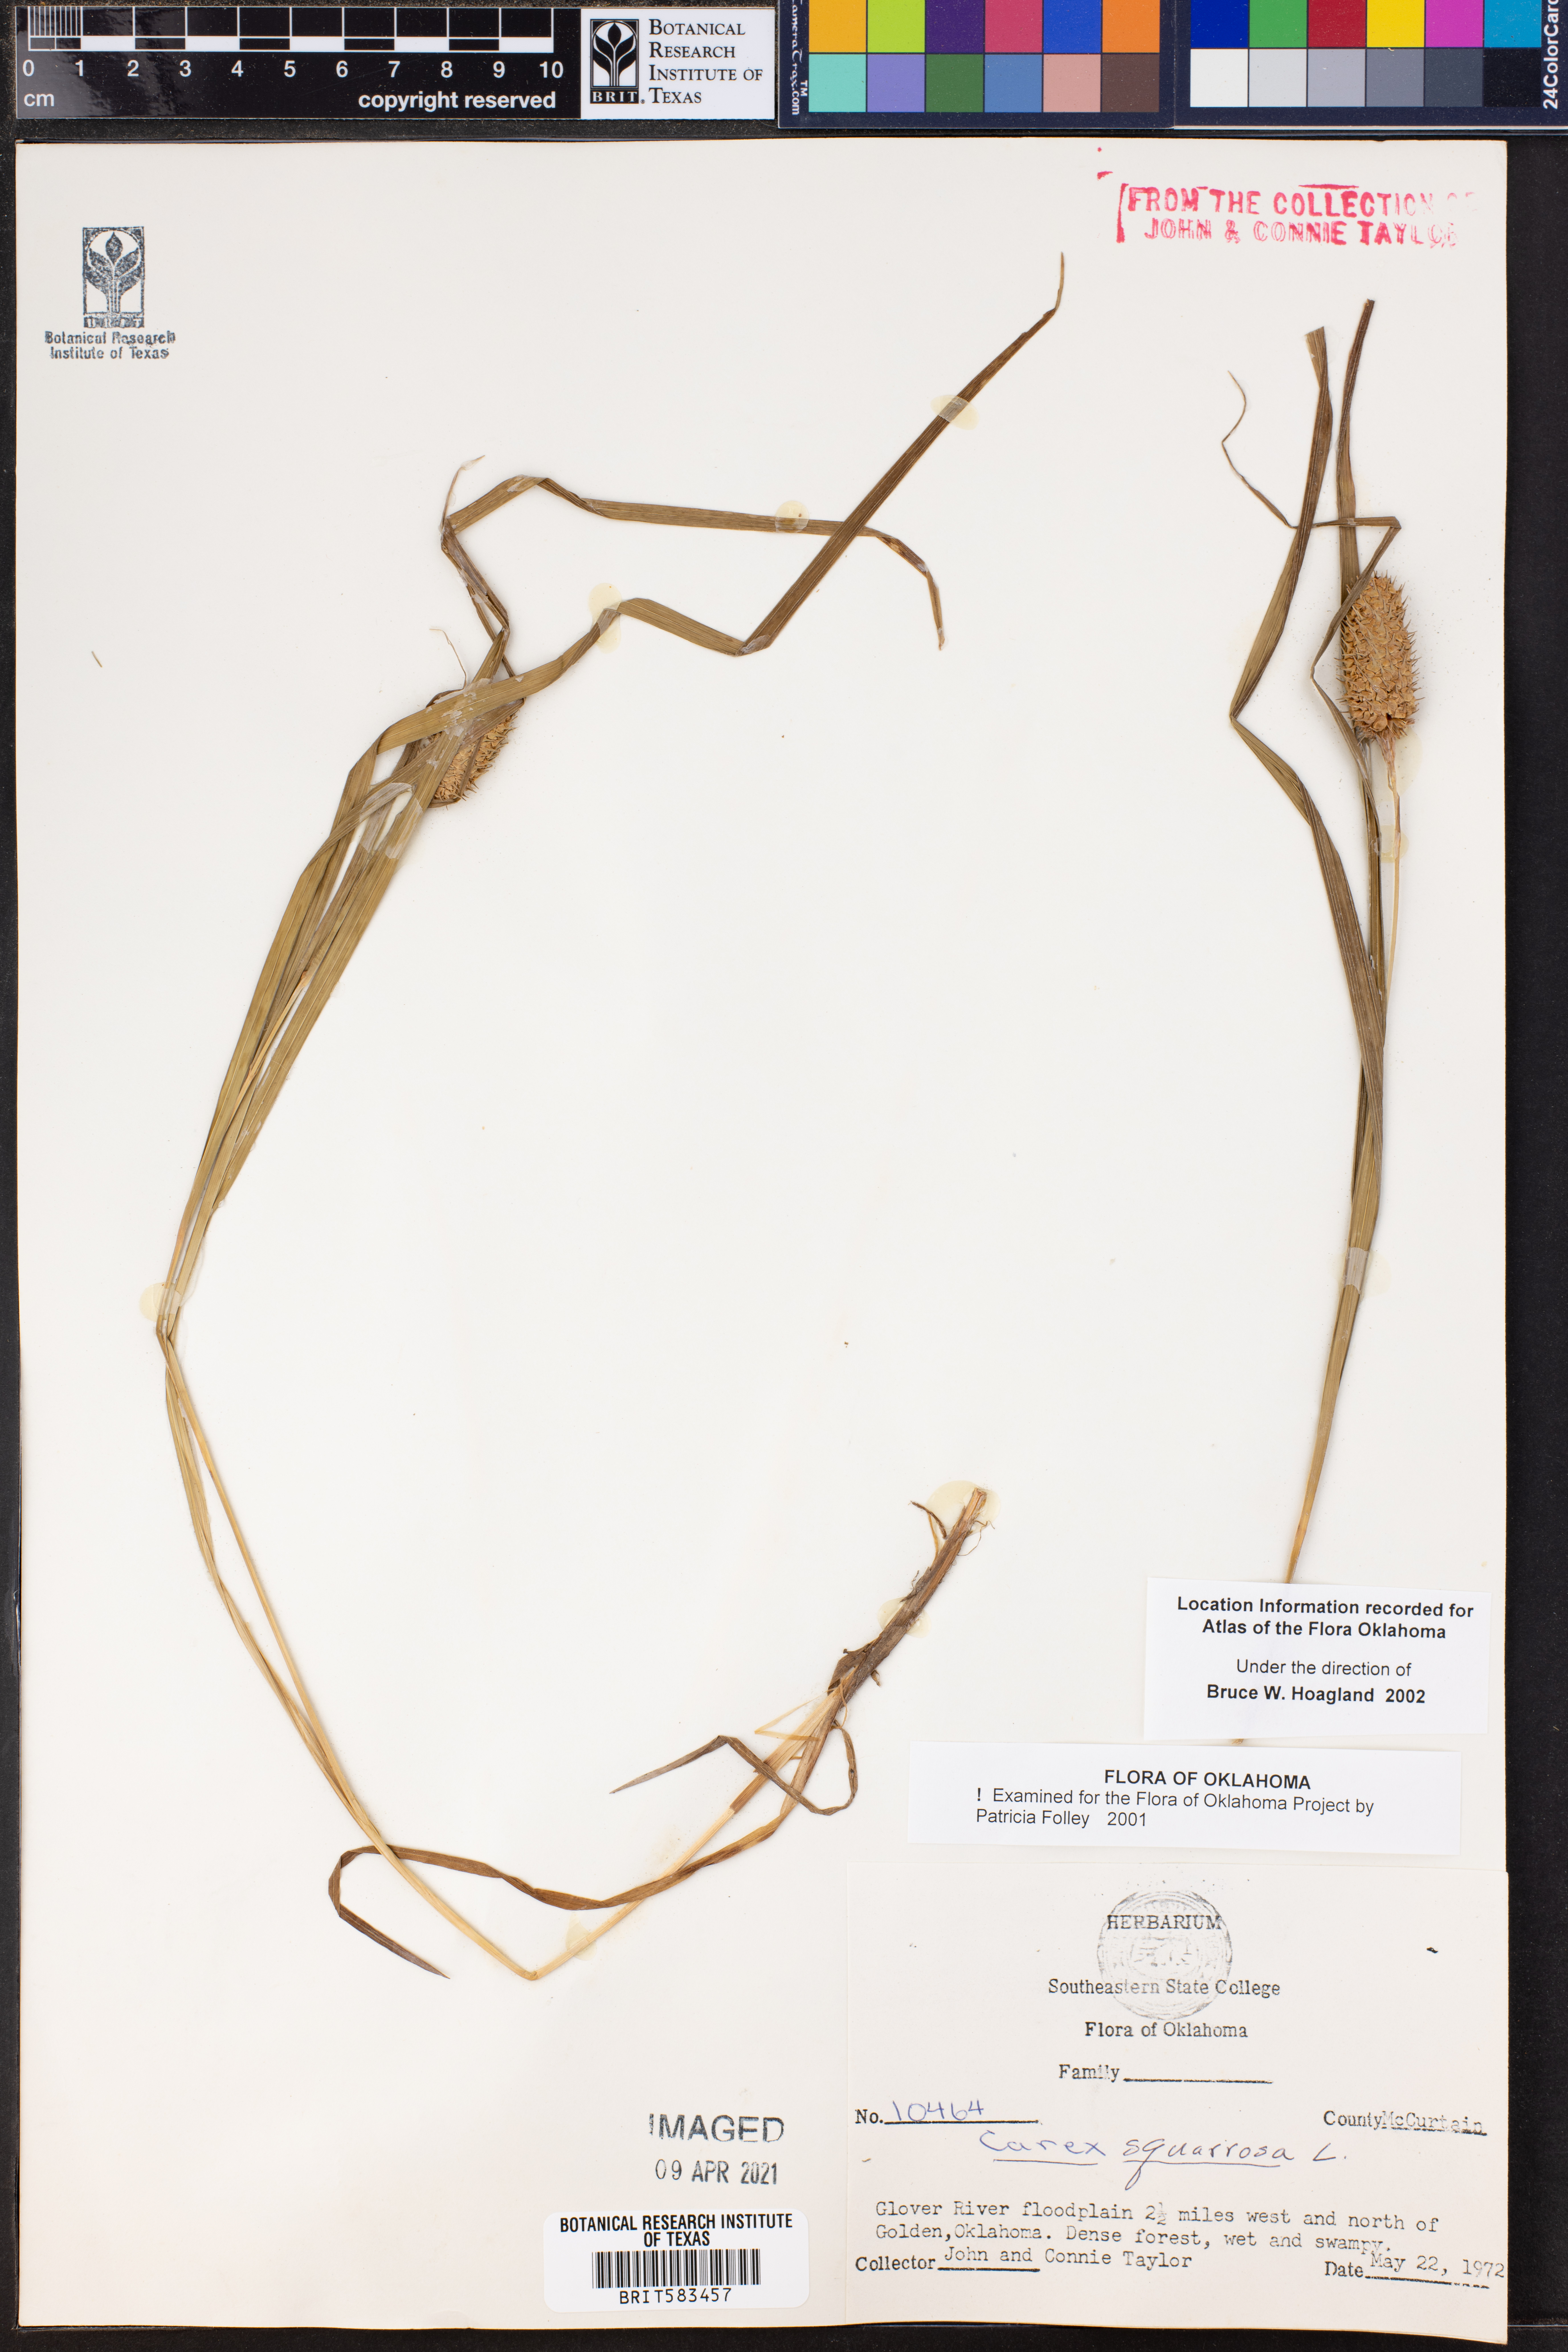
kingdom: Plantae
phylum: Tracheophyta
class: Liliopsida
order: Poales
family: Cyperaceae
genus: Carex
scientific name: Carex squarrosa
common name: Narrow-leaved cattail sedge
